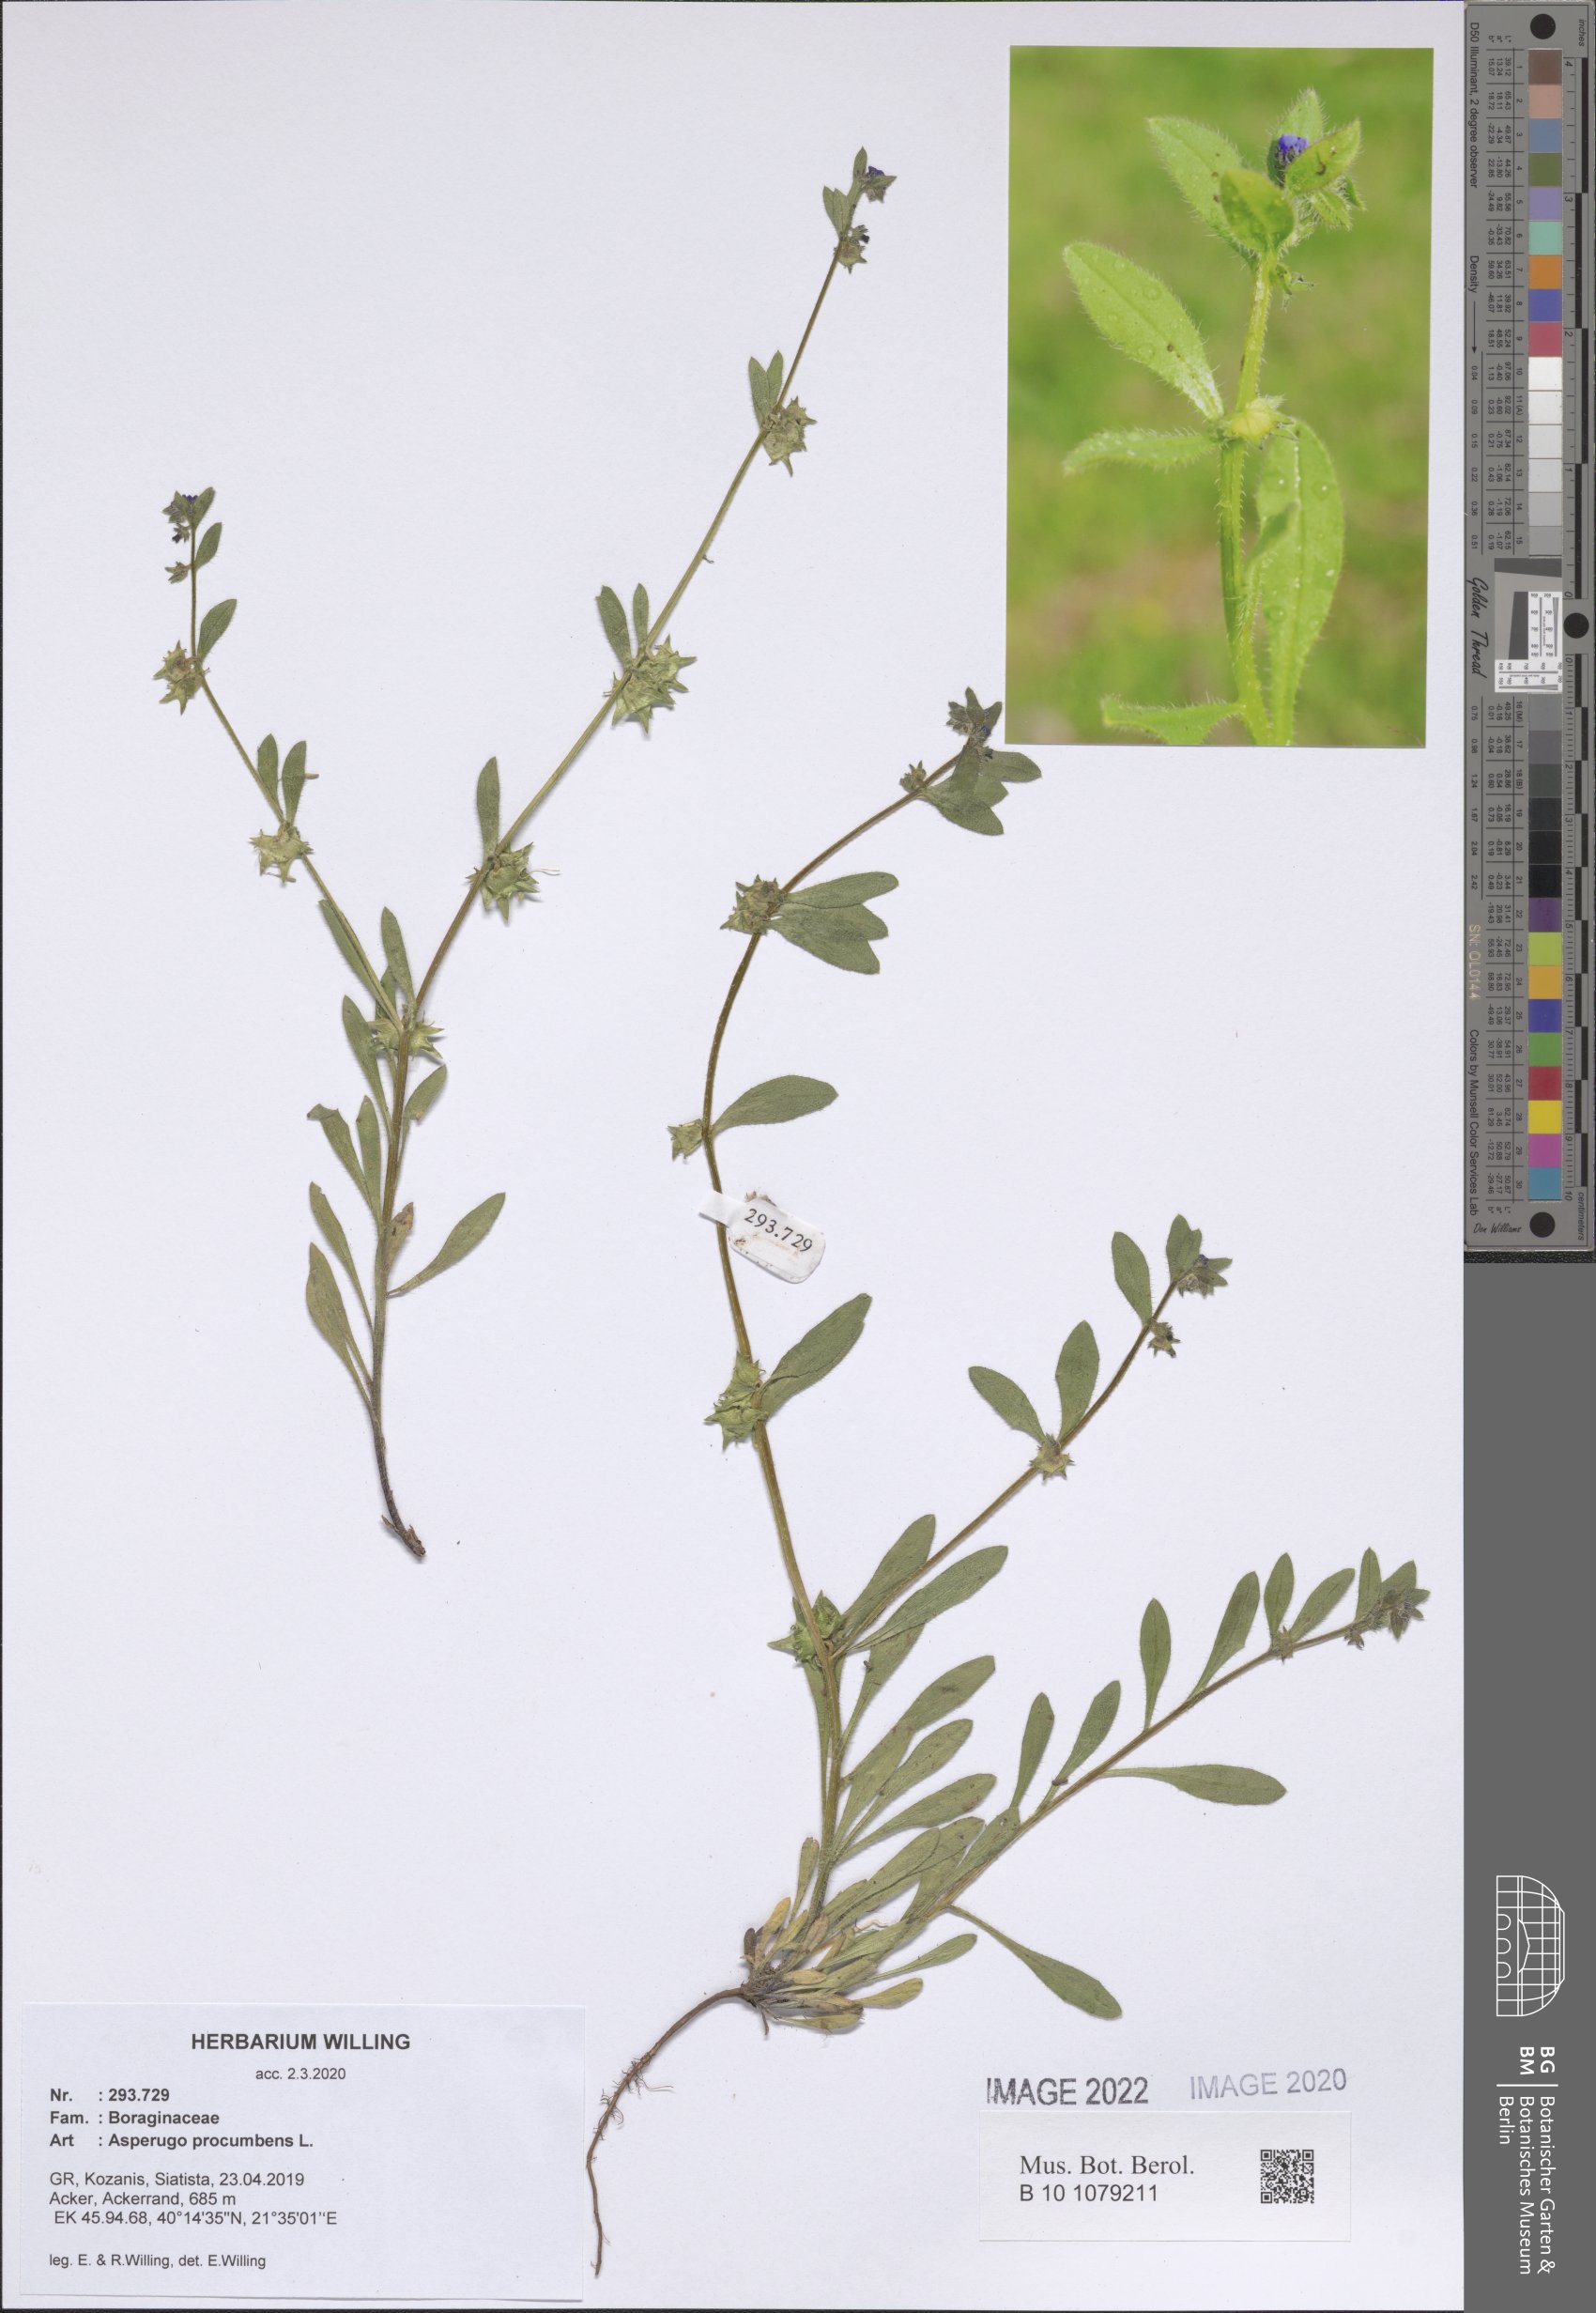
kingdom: Plantae
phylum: Tracheophyta
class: Magnoliopsida
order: Boraginales
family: Boraginaceae
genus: Asperugo
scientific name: Asperugo procumbens
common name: Madwort
